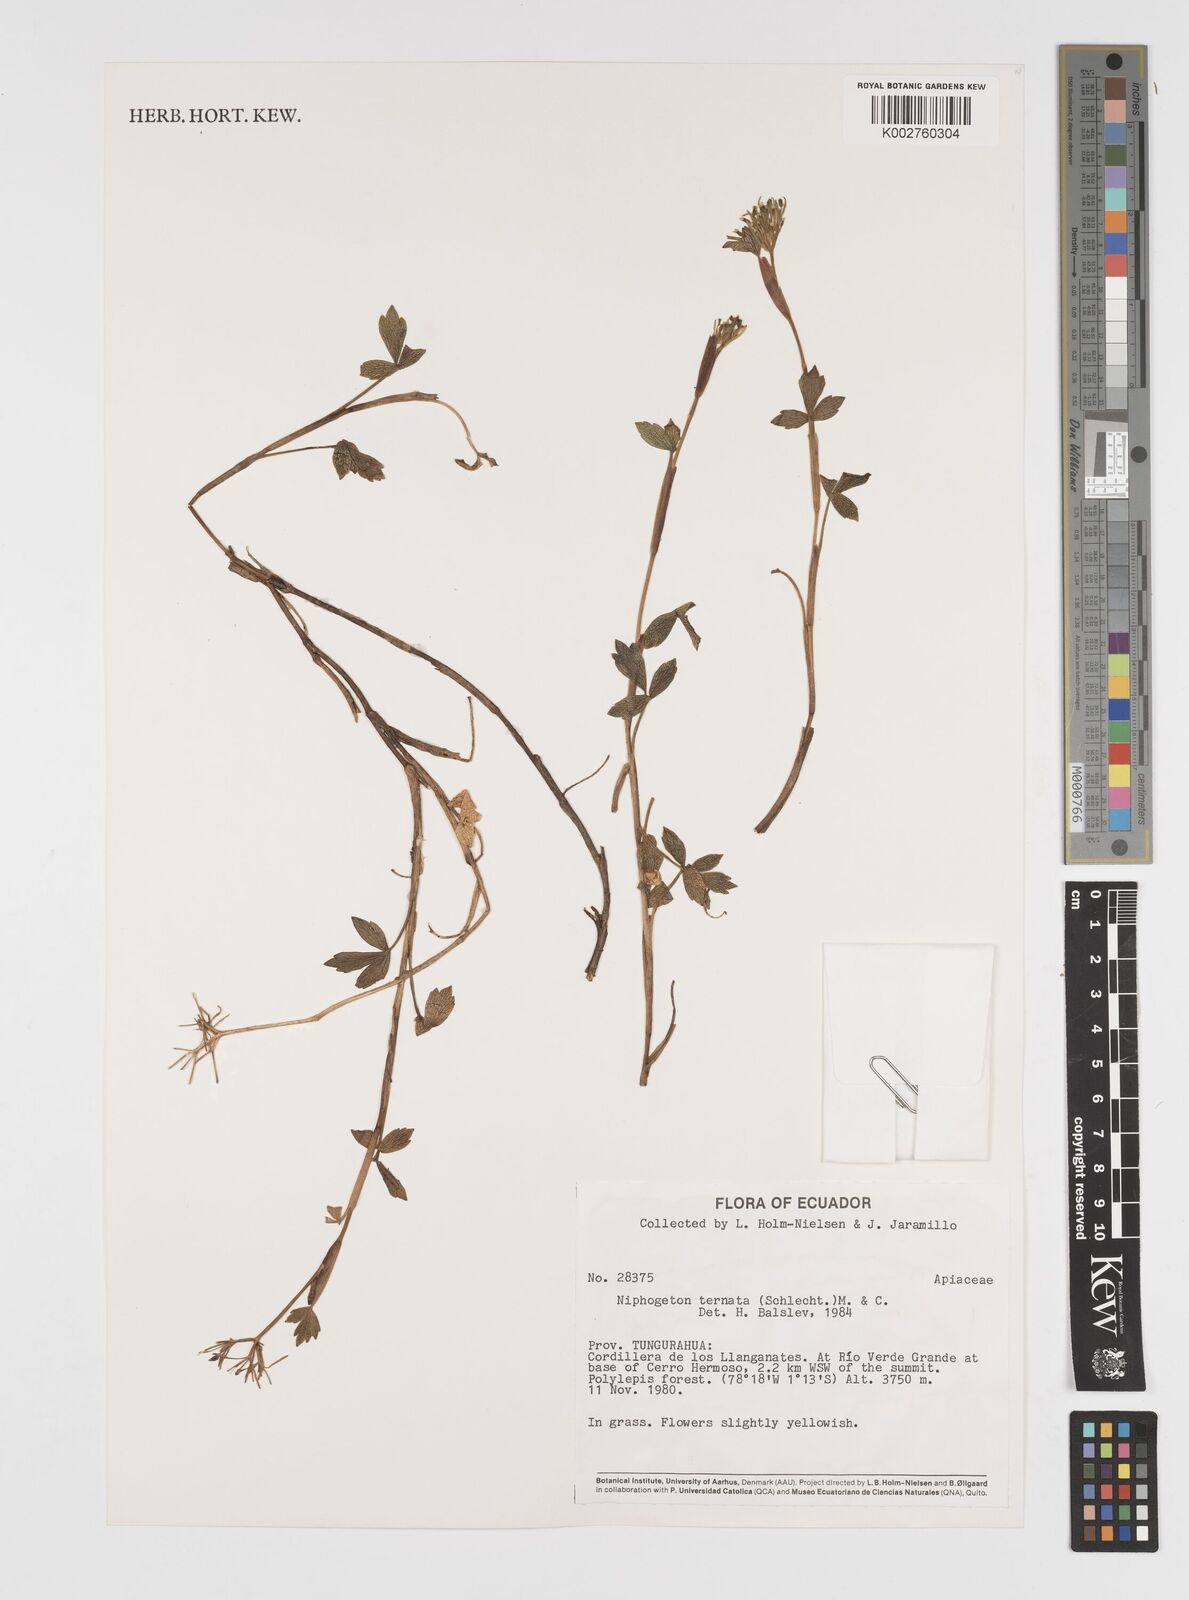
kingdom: Plantae
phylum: Tracheophyta
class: Magnoliopsida
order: Apiales
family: Apiaceae
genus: Niphogeton
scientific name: Niphogeton ternata
